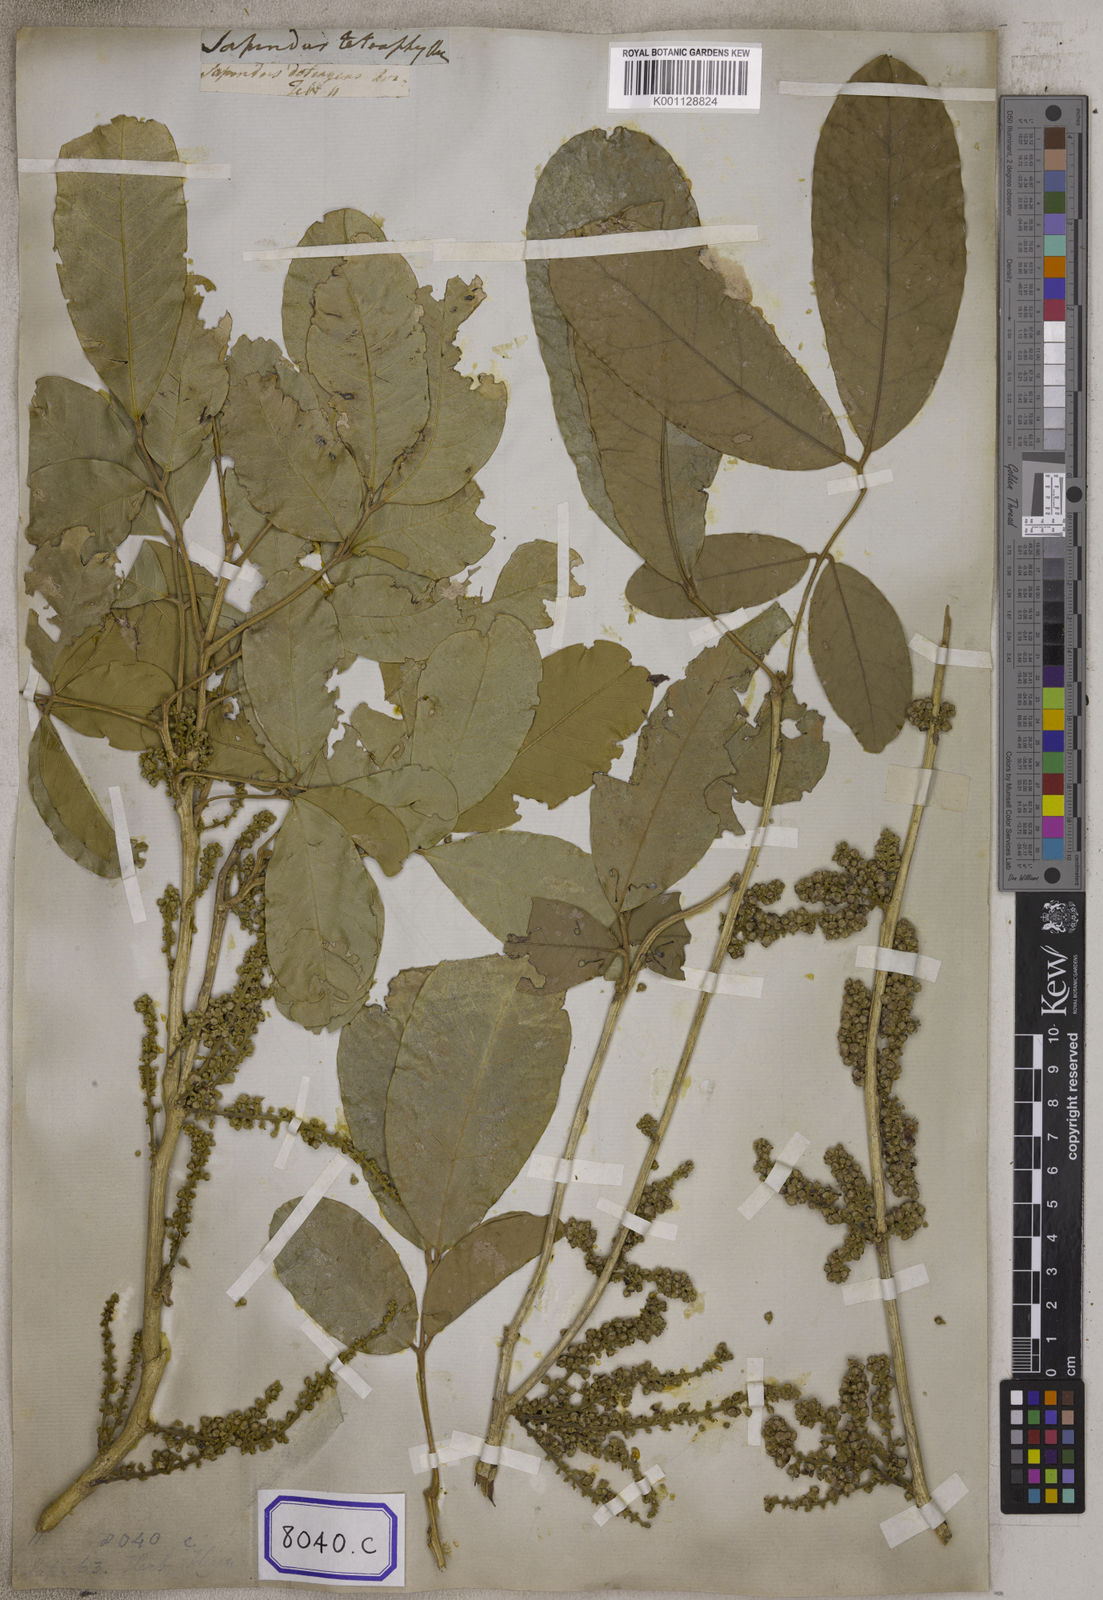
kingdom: Plantae
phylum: Tracheophyta
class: Magnoliopsida
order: Sapindales
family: Sapindaceae
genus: Lepisanthes
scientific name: Lepisanthes tetraphylla
